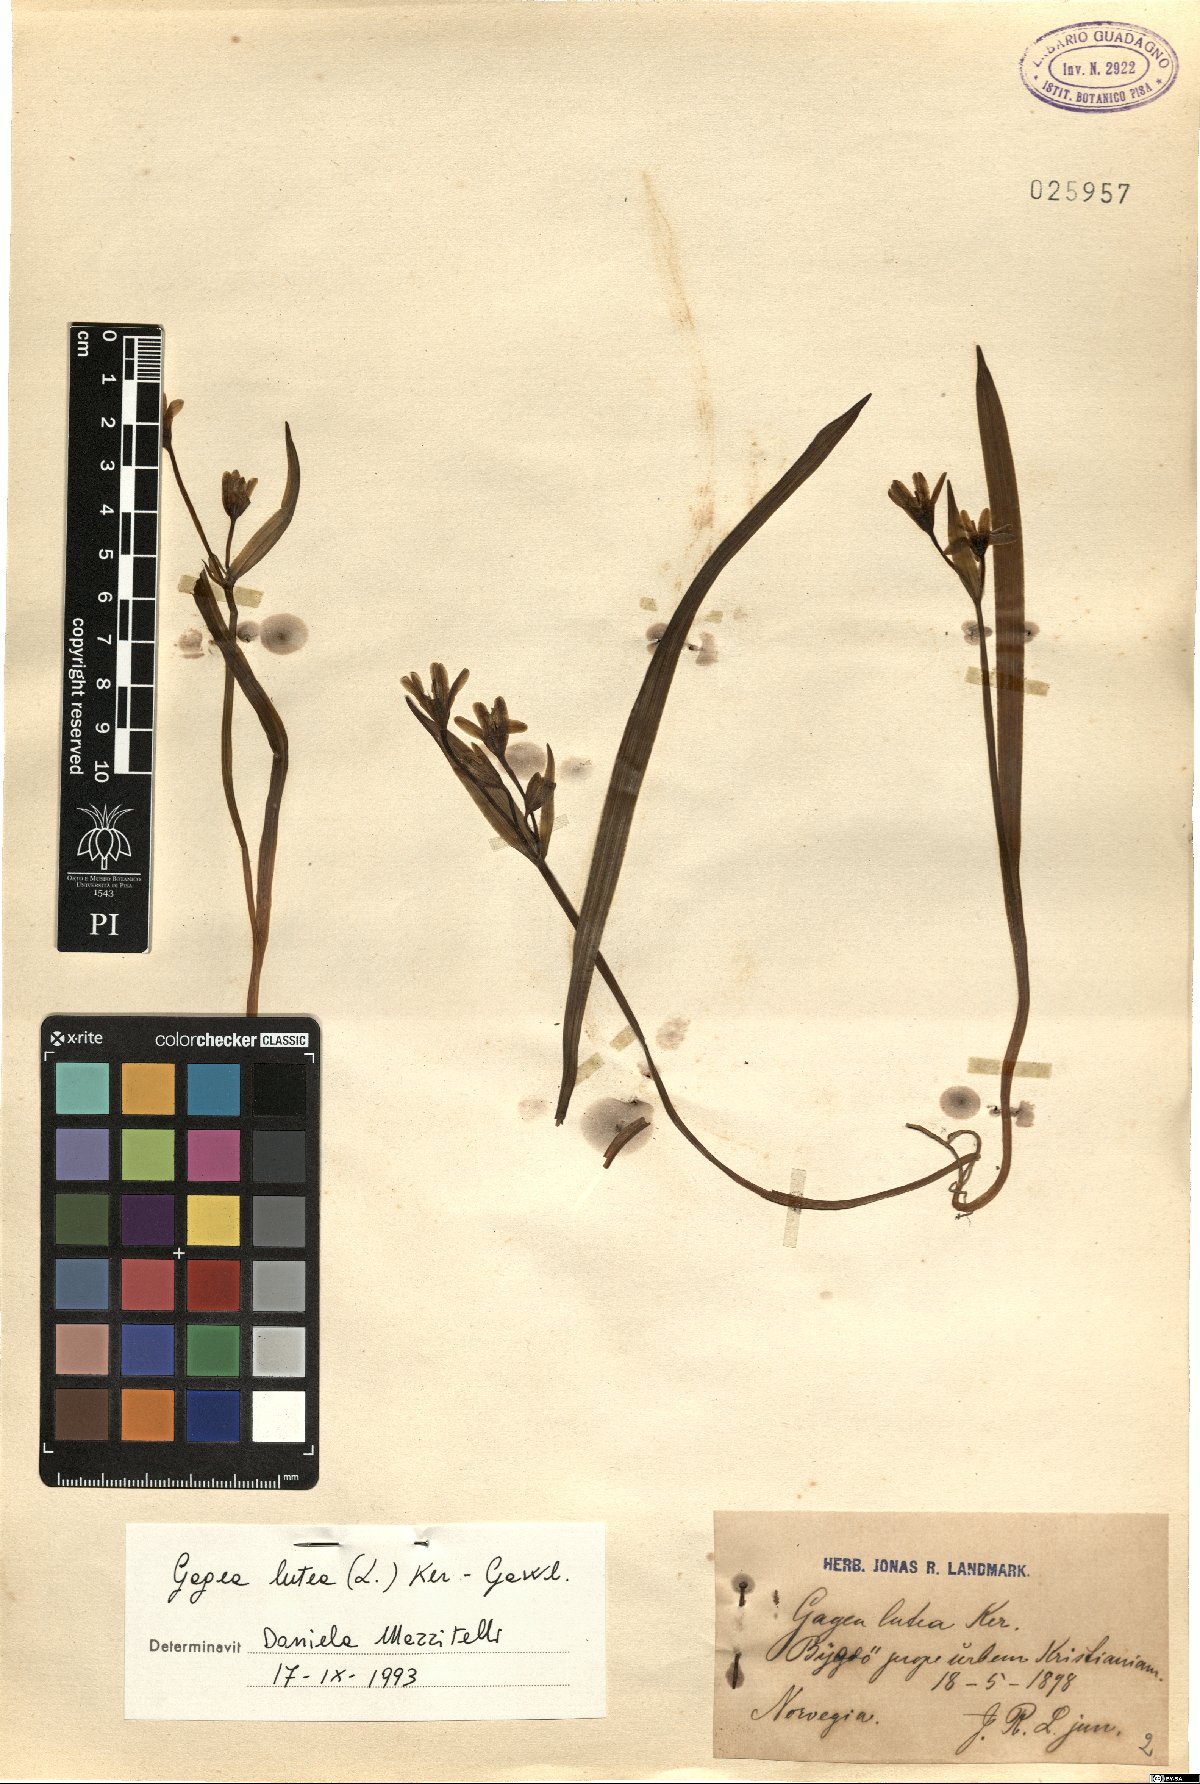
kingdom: Plantae
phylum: Tracheophyta
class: Liliopsida
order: Liliales
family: Liliaceae
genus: Gagea
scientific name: Gagea lutea
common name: Yellow star-of-bethlehem
